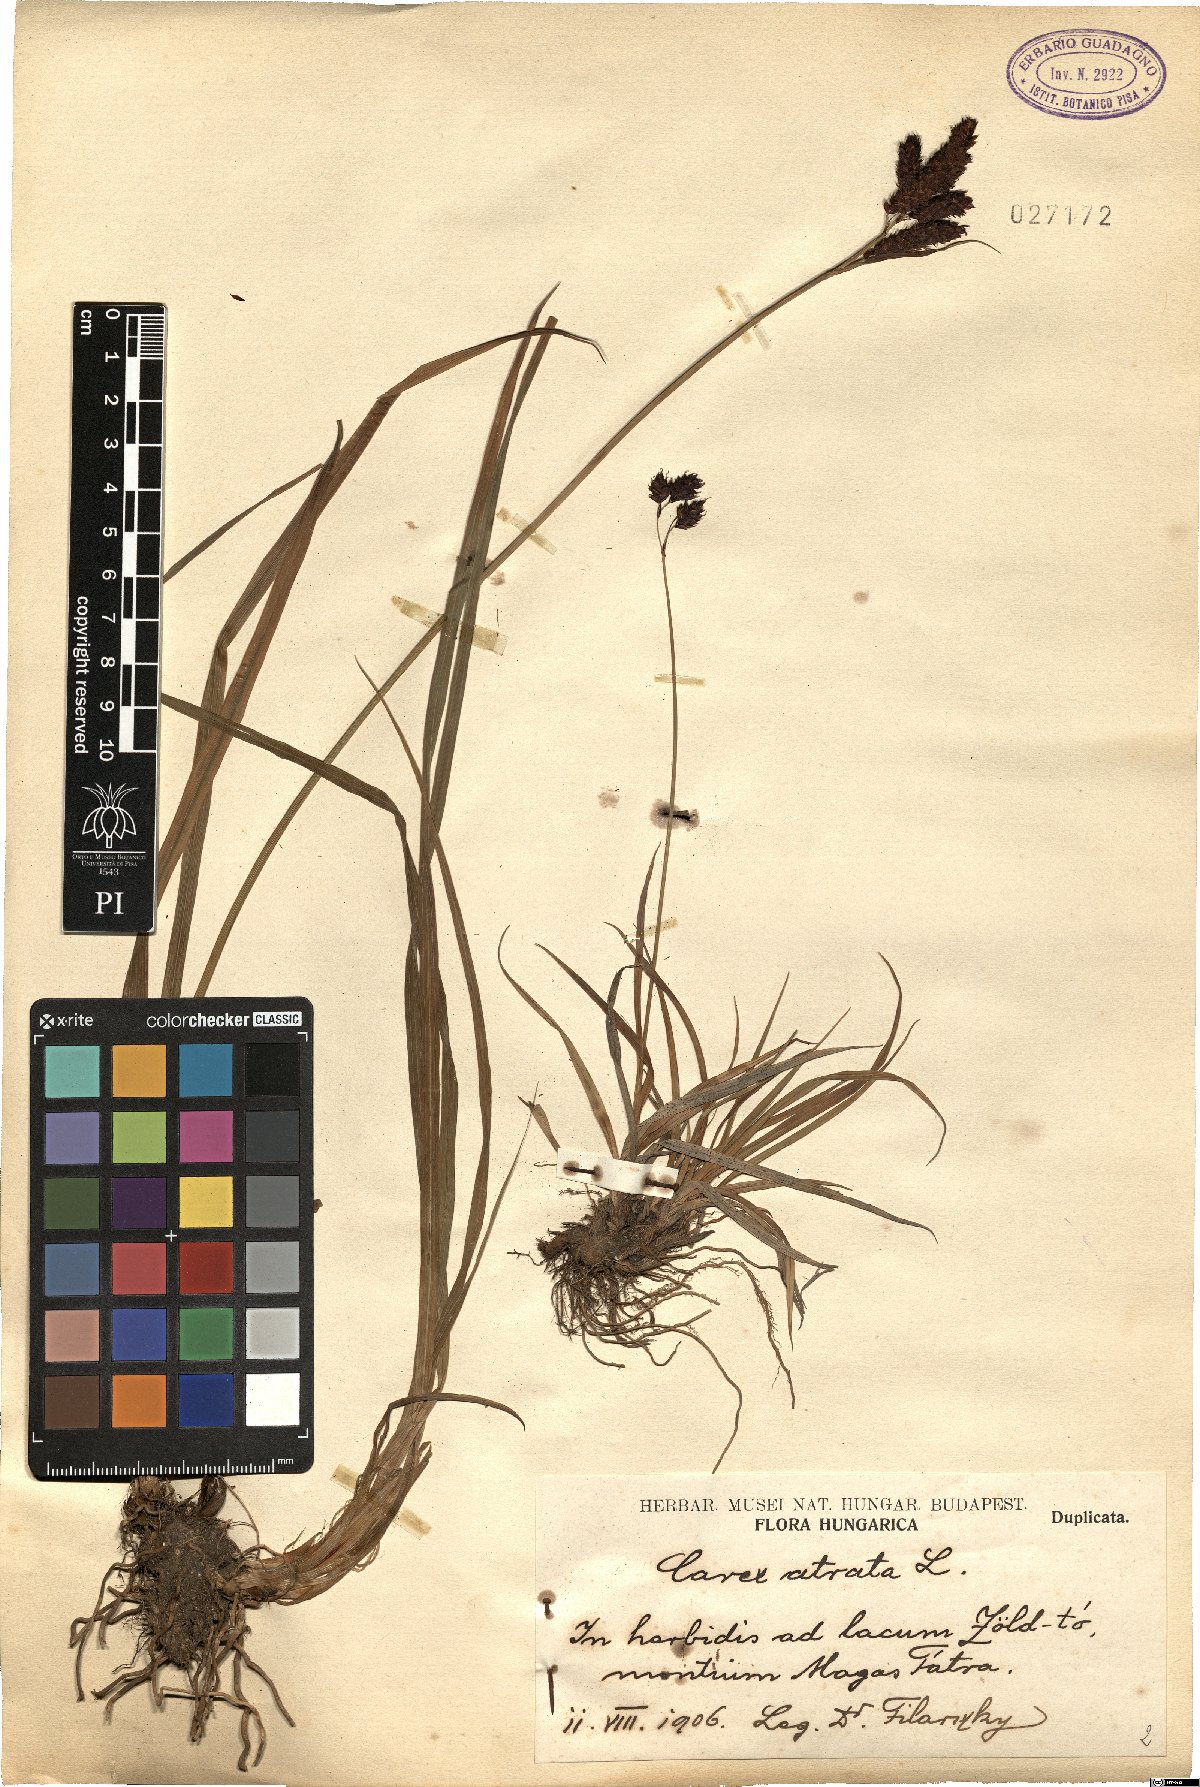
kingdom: Plantae
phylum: Tracheophyta
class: Liliopsida
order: Poales
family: Cyperaceae
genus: Carex
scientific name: Carex atrata
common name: Black alpine sedge
